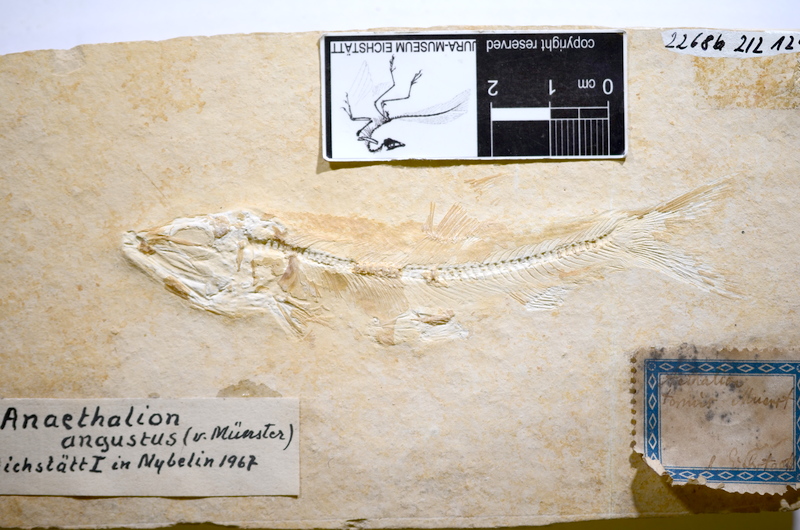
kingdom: Animalia
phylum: Chordata
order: Elopiformes
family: Anaethalionidae
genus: Anaethalion
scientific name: Anaethalion angustus
